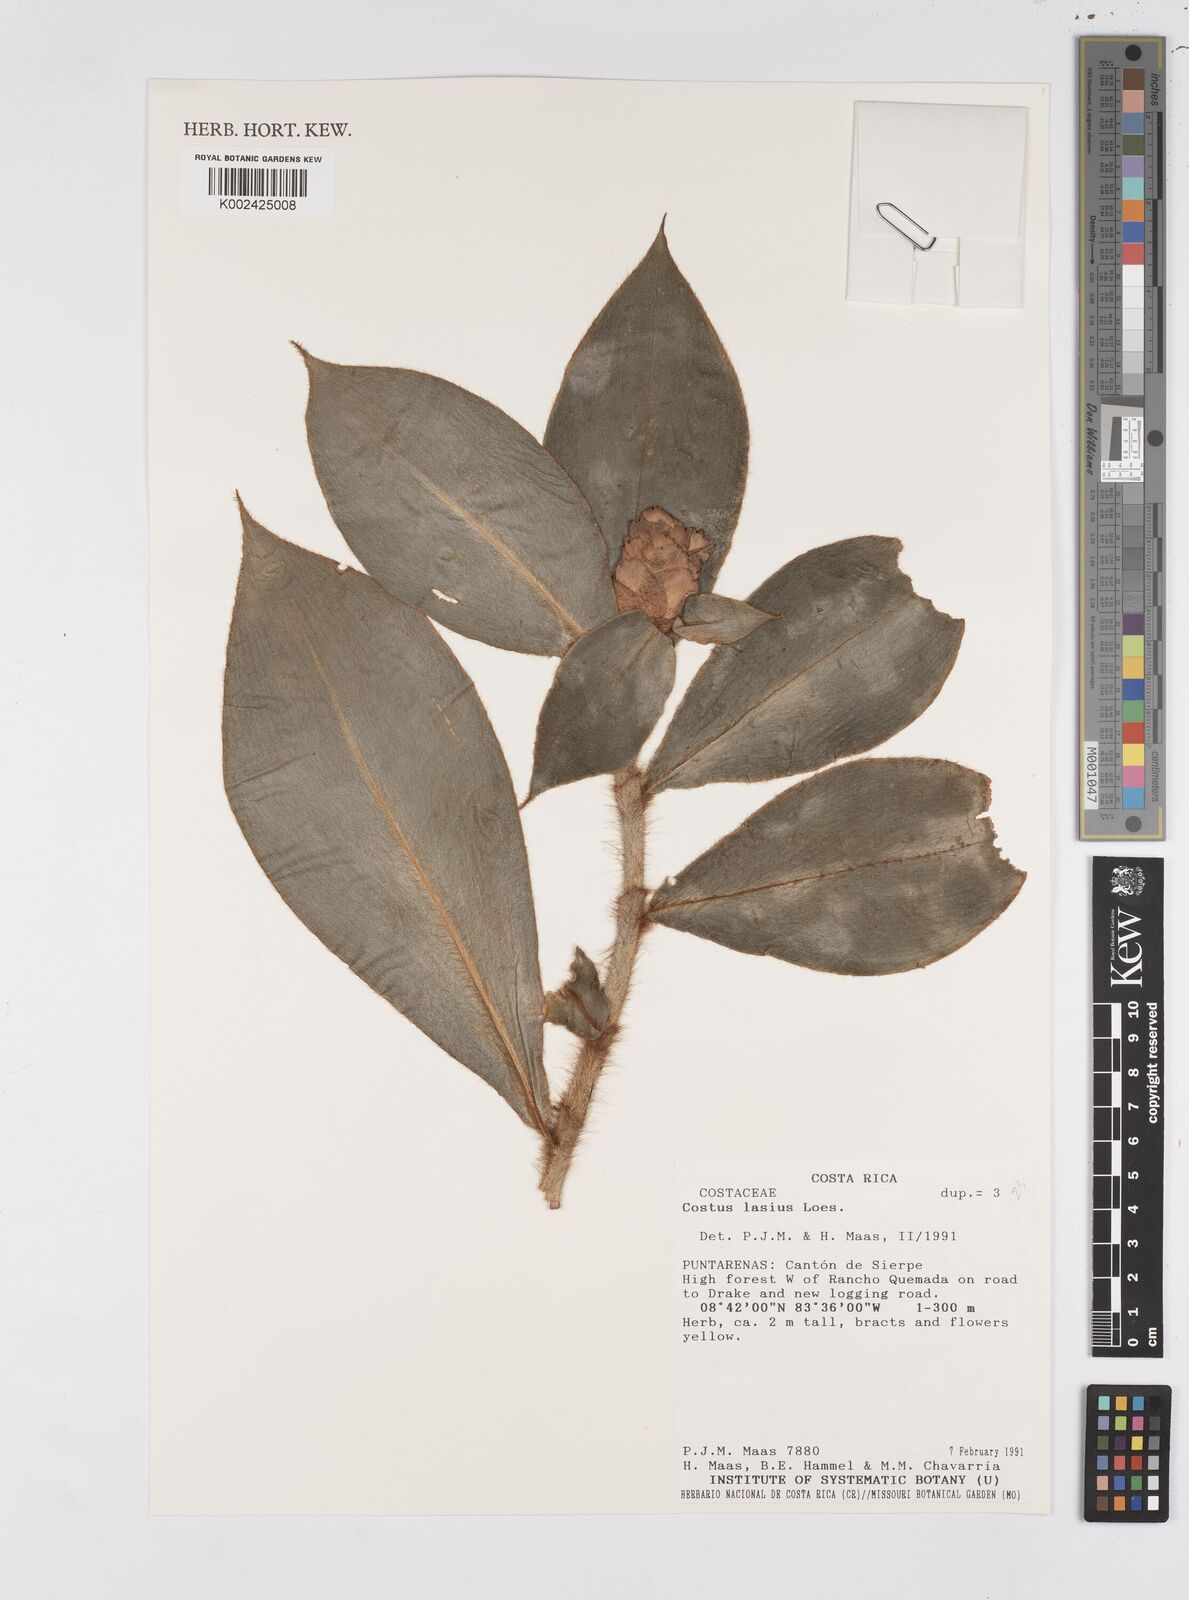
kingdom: Plantae
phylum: Tracheophyta
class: Liliopsida
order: Zingiberales
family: Costaceae
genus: Costus
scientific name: Costus lasius
